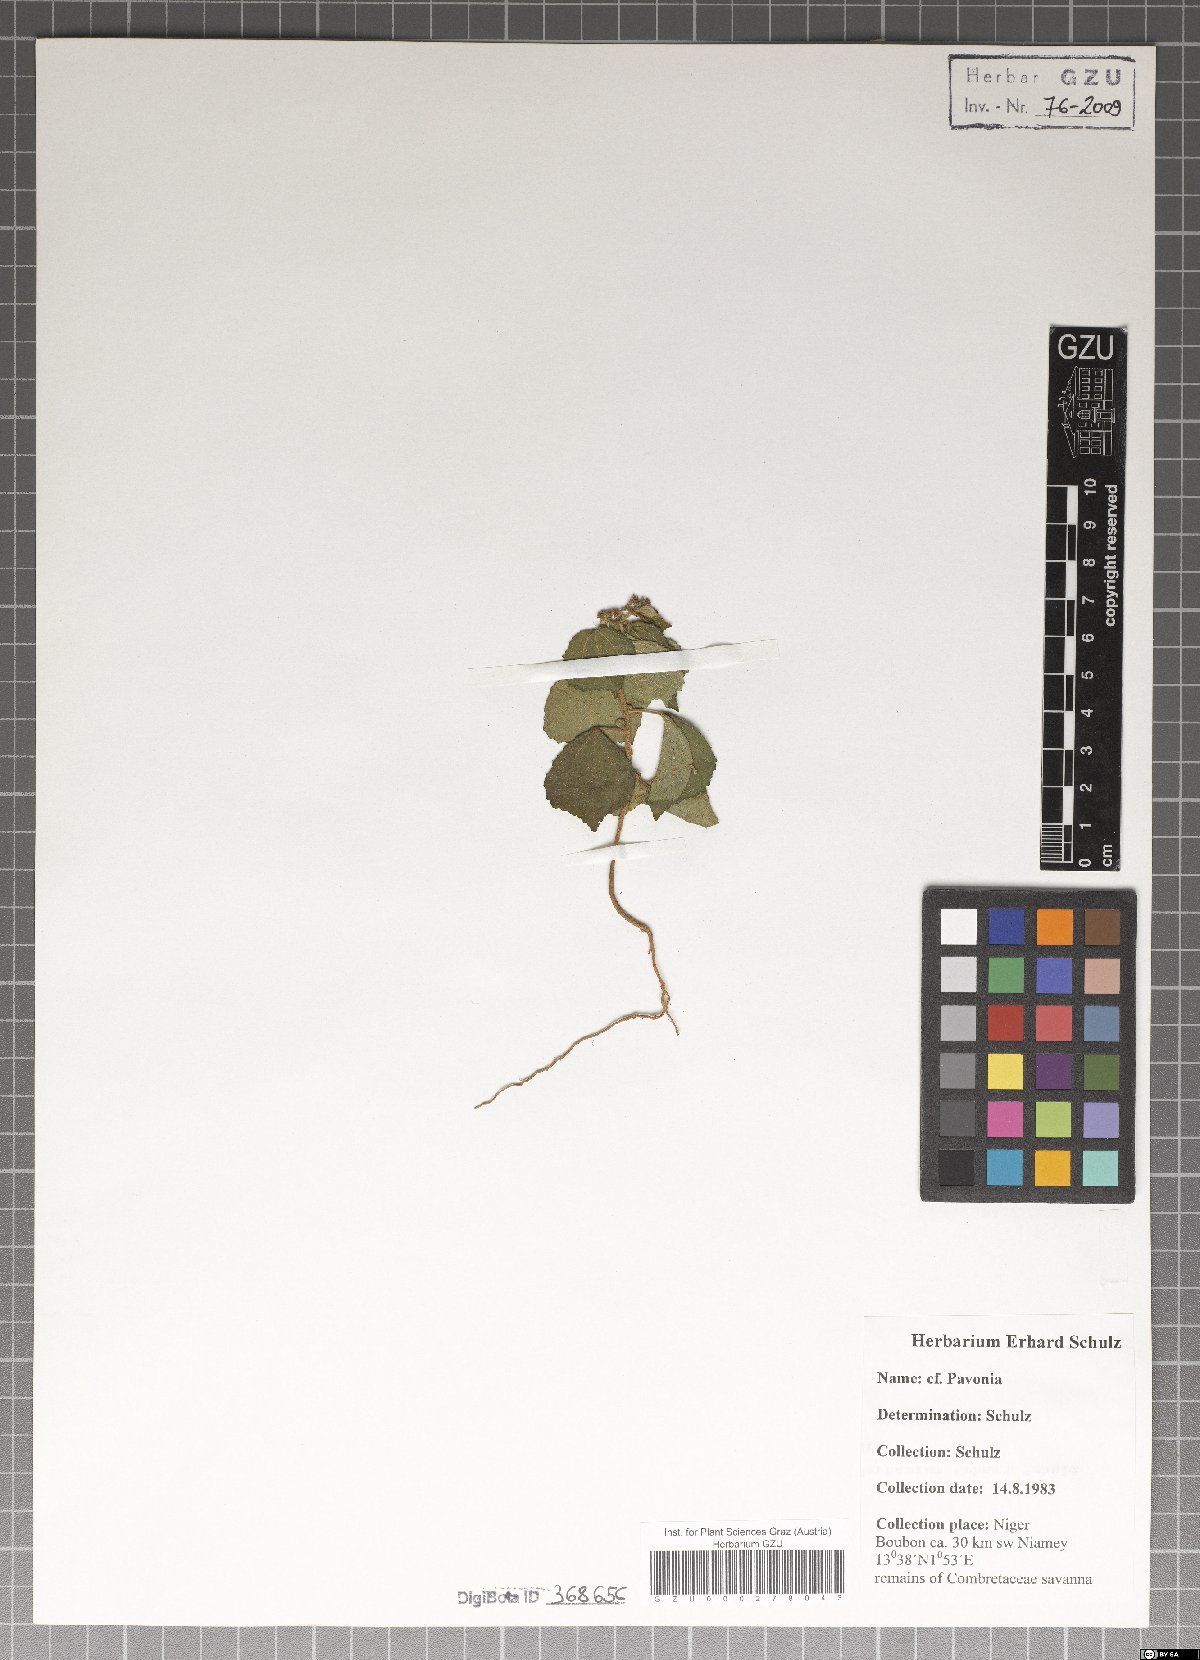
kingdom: Plantae
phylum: Tracheophyta
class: Magnoliopsida
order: Malvales
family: Malvaceae
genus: Pavonia
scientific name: Pavonia
